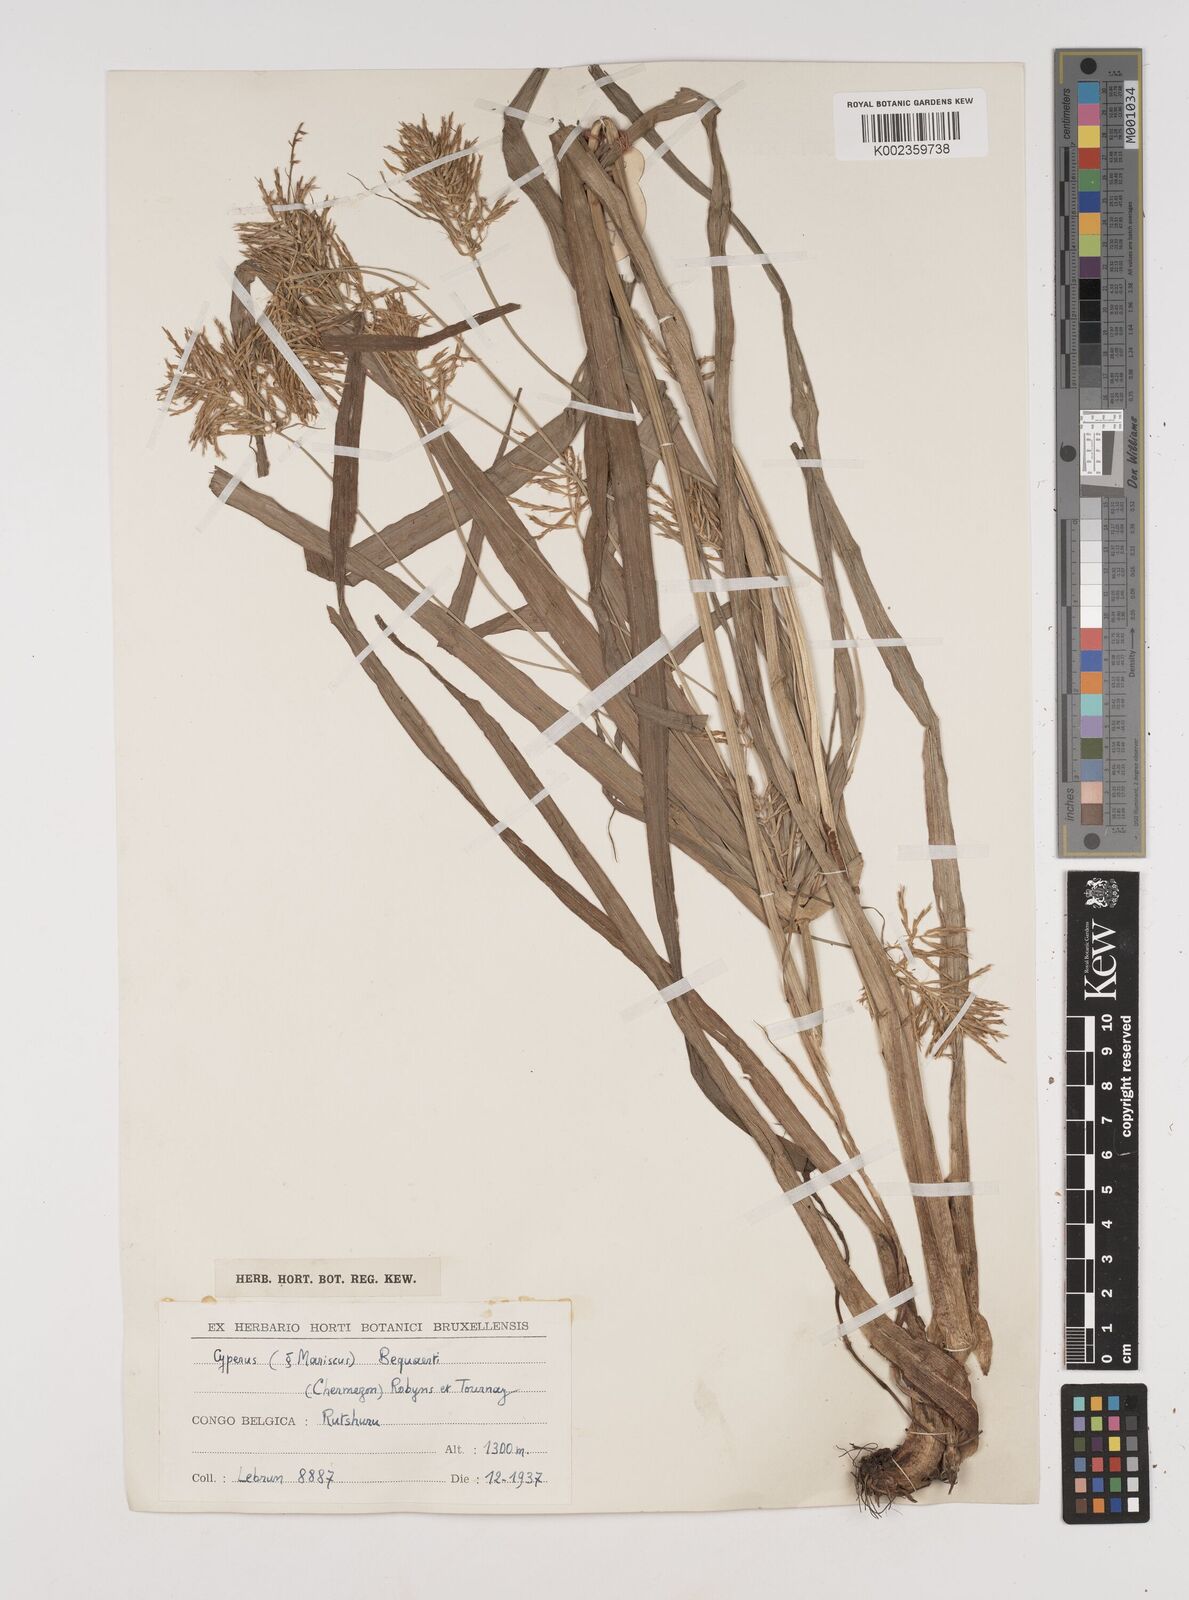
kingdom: Plantae
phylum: Tracheophyta
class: Liliopsida
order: Poales
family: Cyperaceae
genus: Cyperus
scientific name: Cyperus ferrugineoviridis
